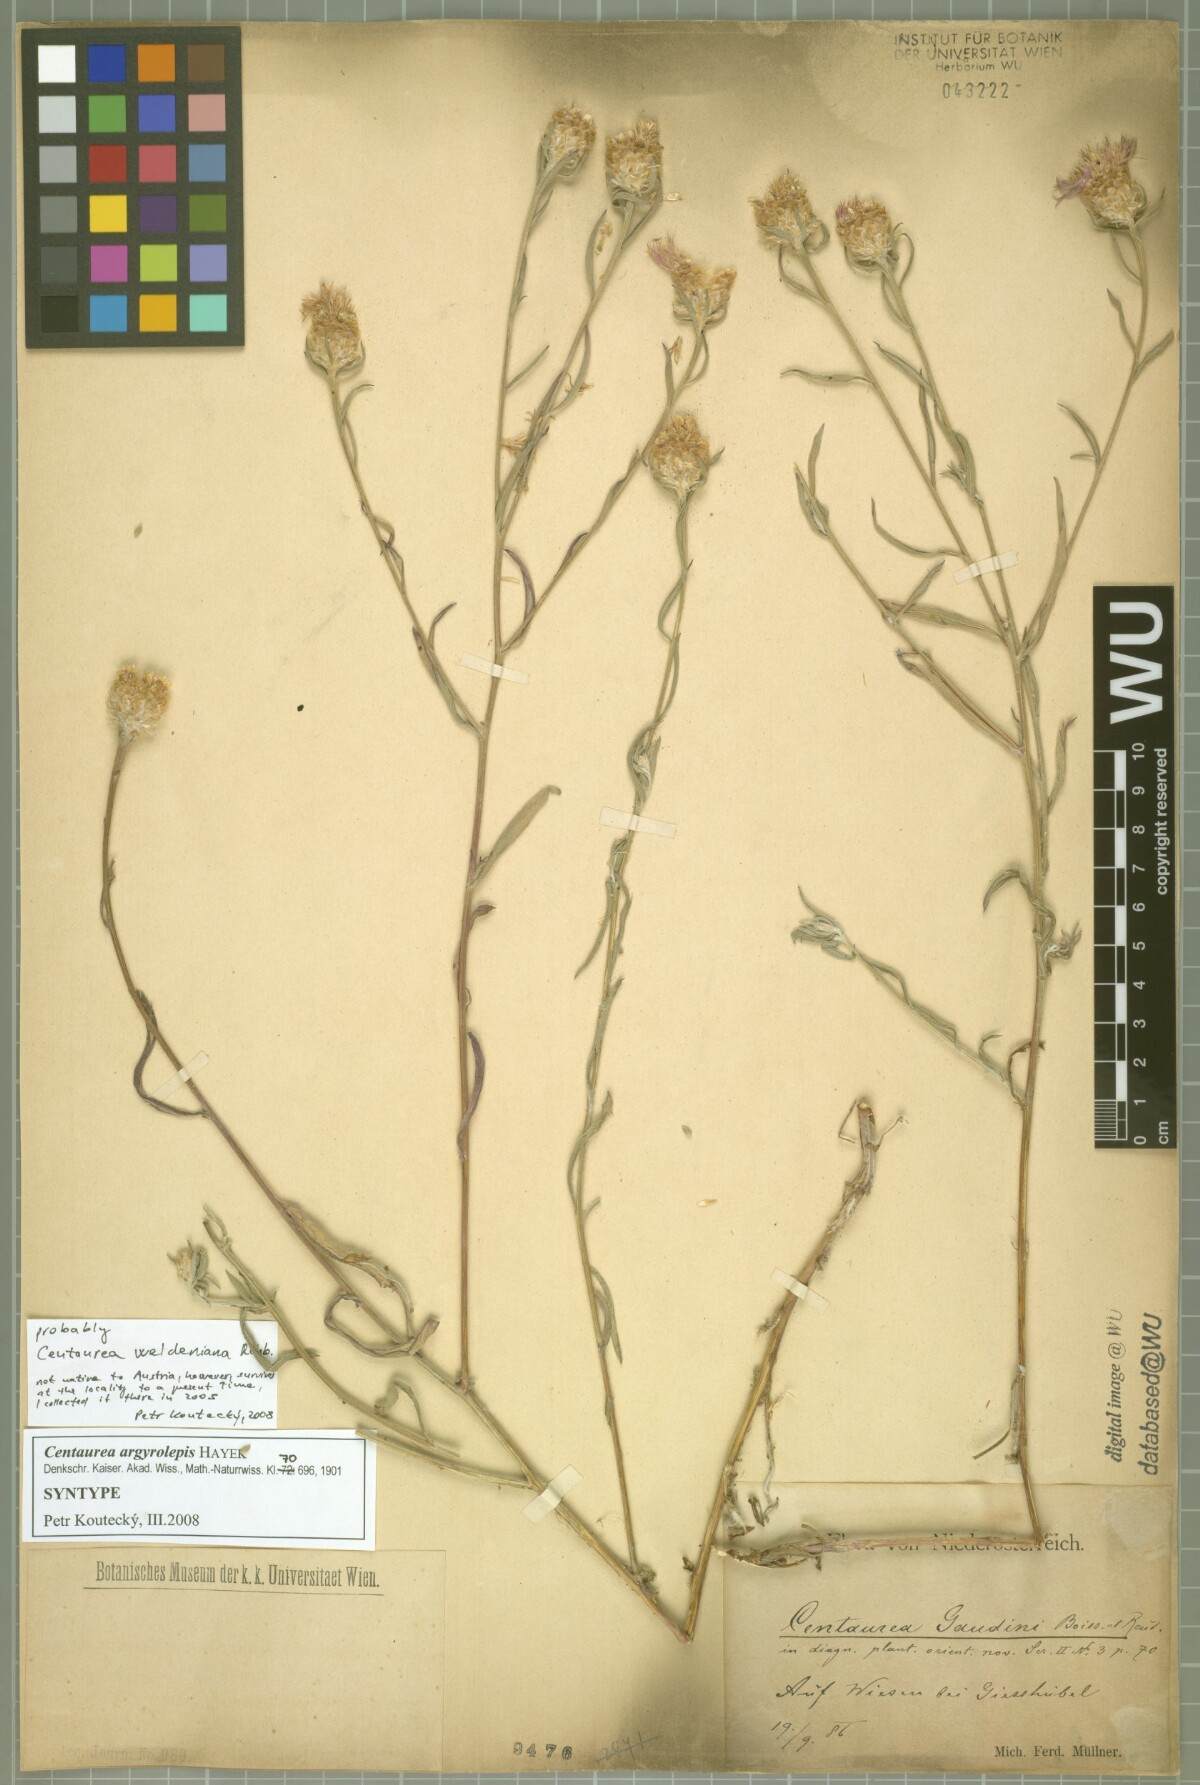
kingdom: Plantae
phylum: Tracheophyta
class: Magnoliopsida
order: Asterales
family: Asteraceae
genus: Centaurea
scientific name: Centaurea argyrolepis
